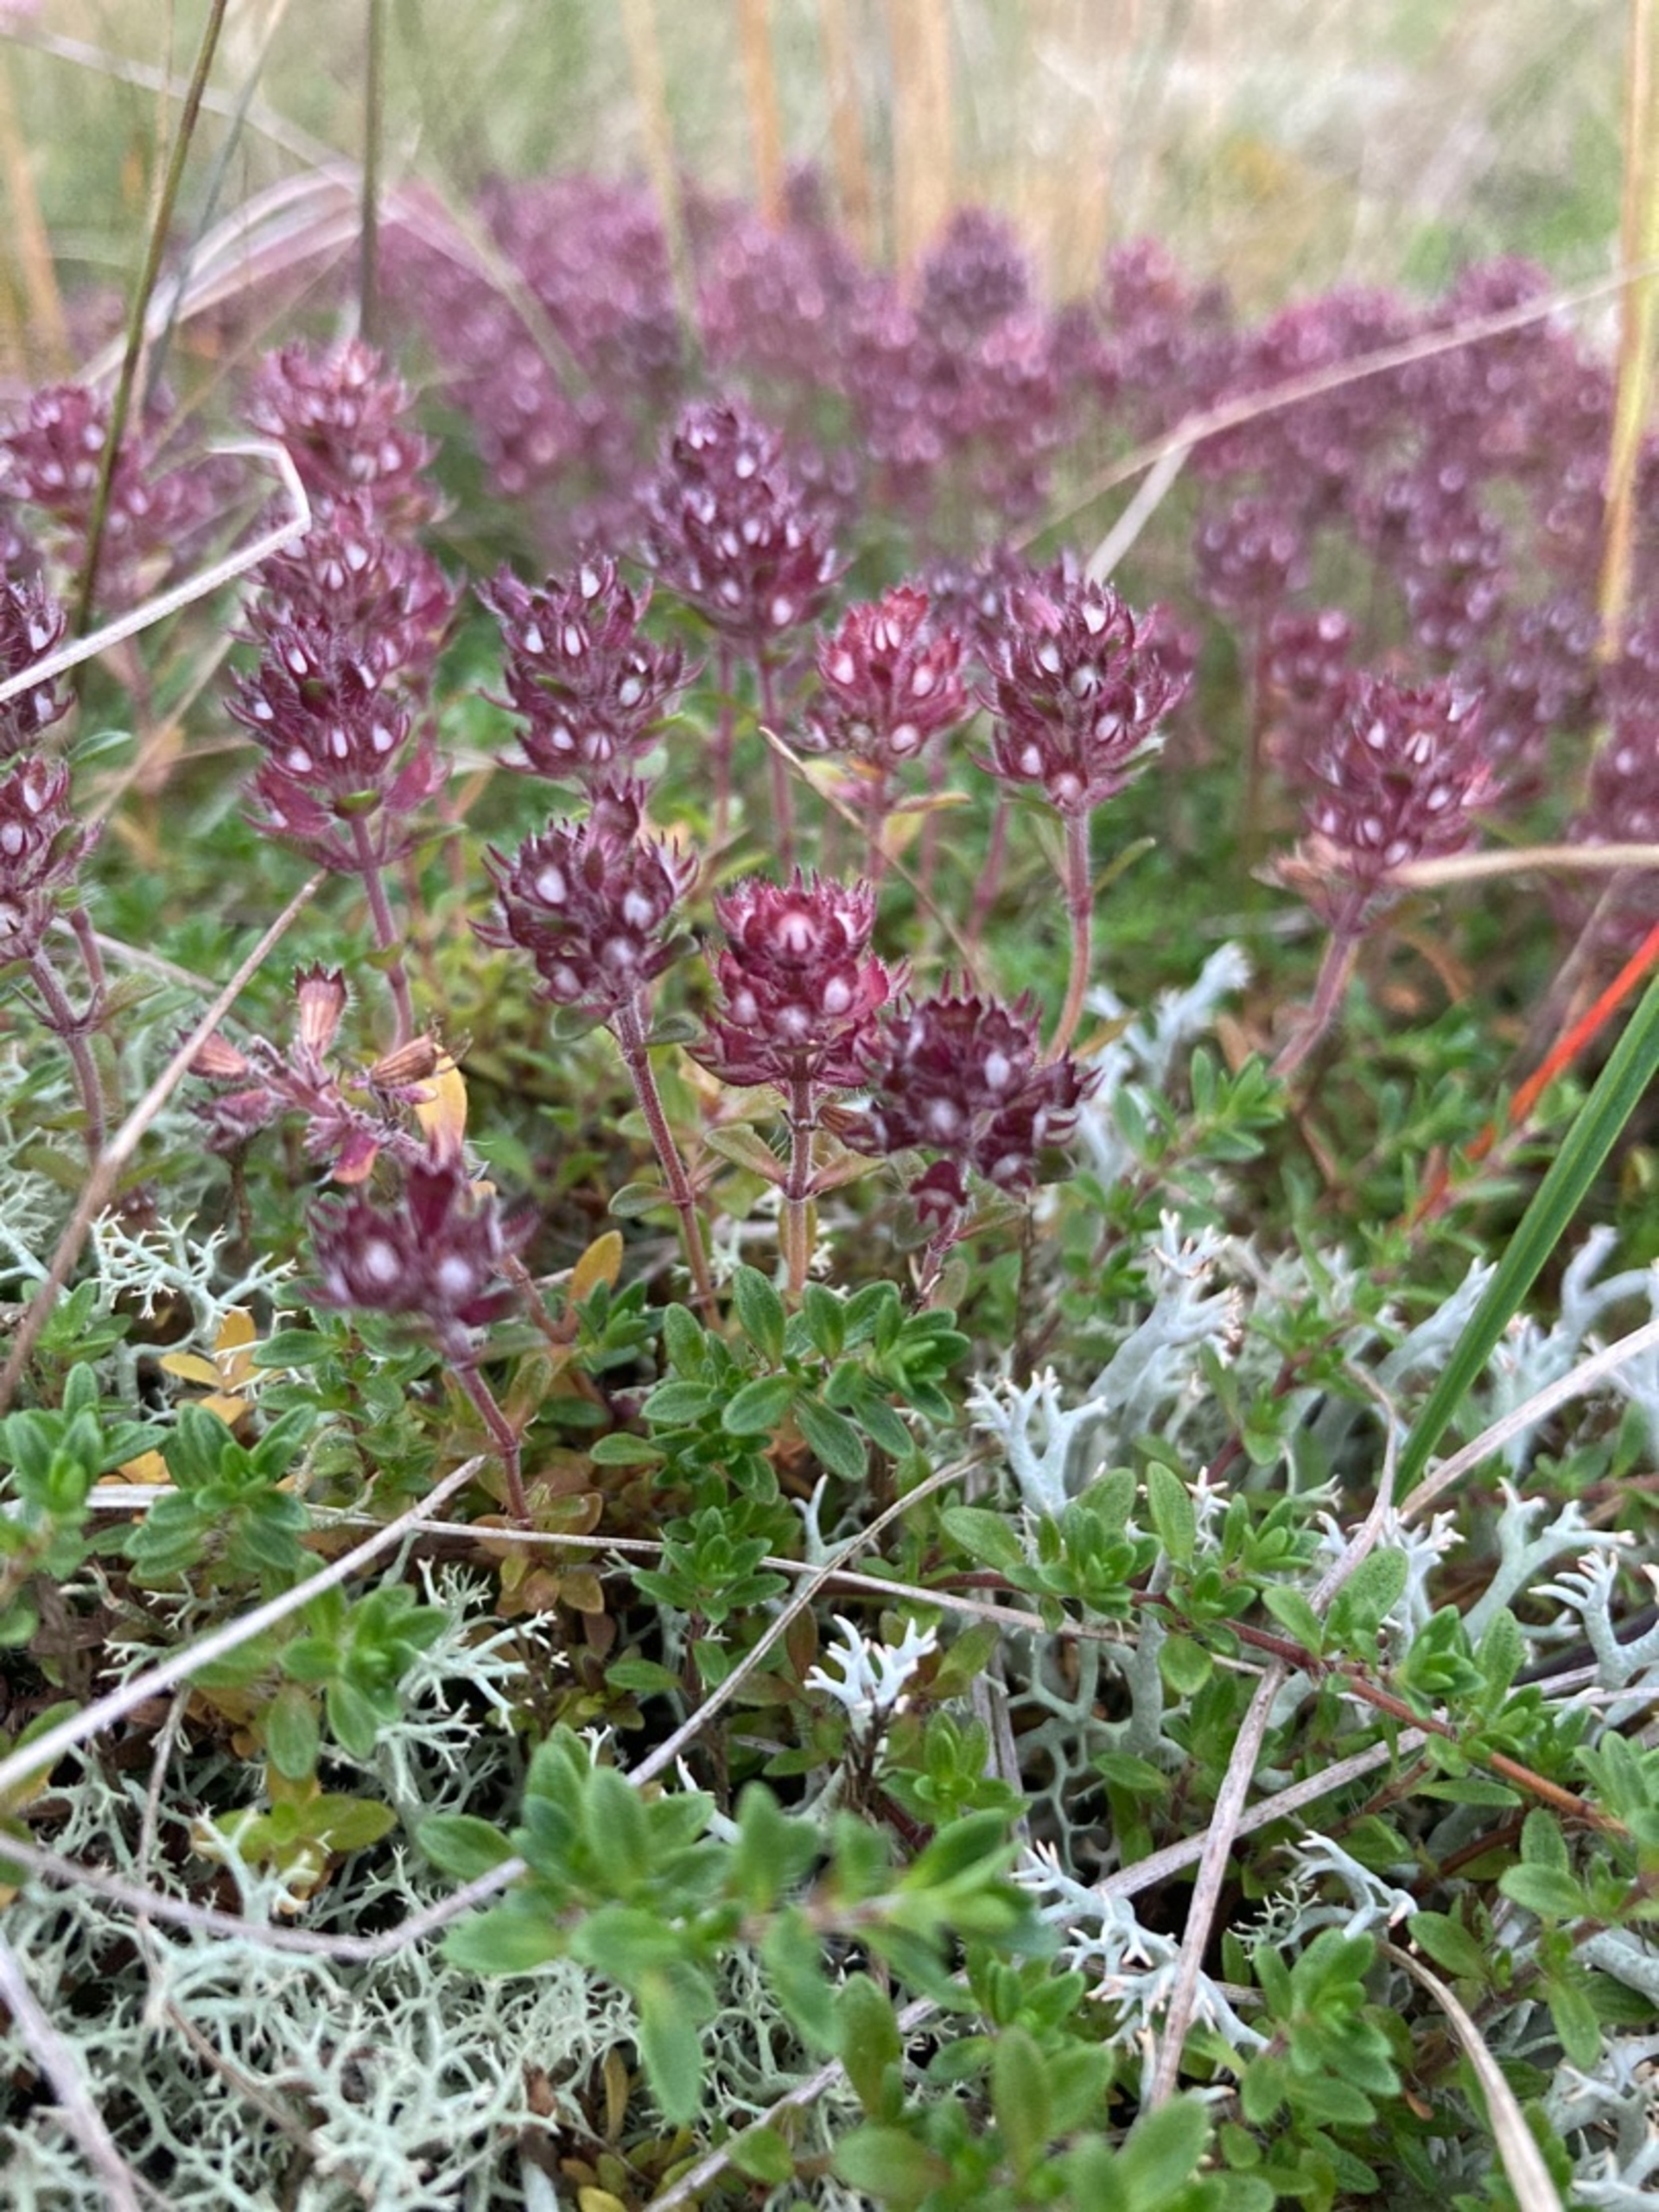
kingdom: Plantae
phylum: Tracheophyta
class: Magnoliopsida
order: Lamiales
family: Lamiaceae
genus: Thymus
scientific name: Thymus serpyllum
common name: Smalbladet timian
